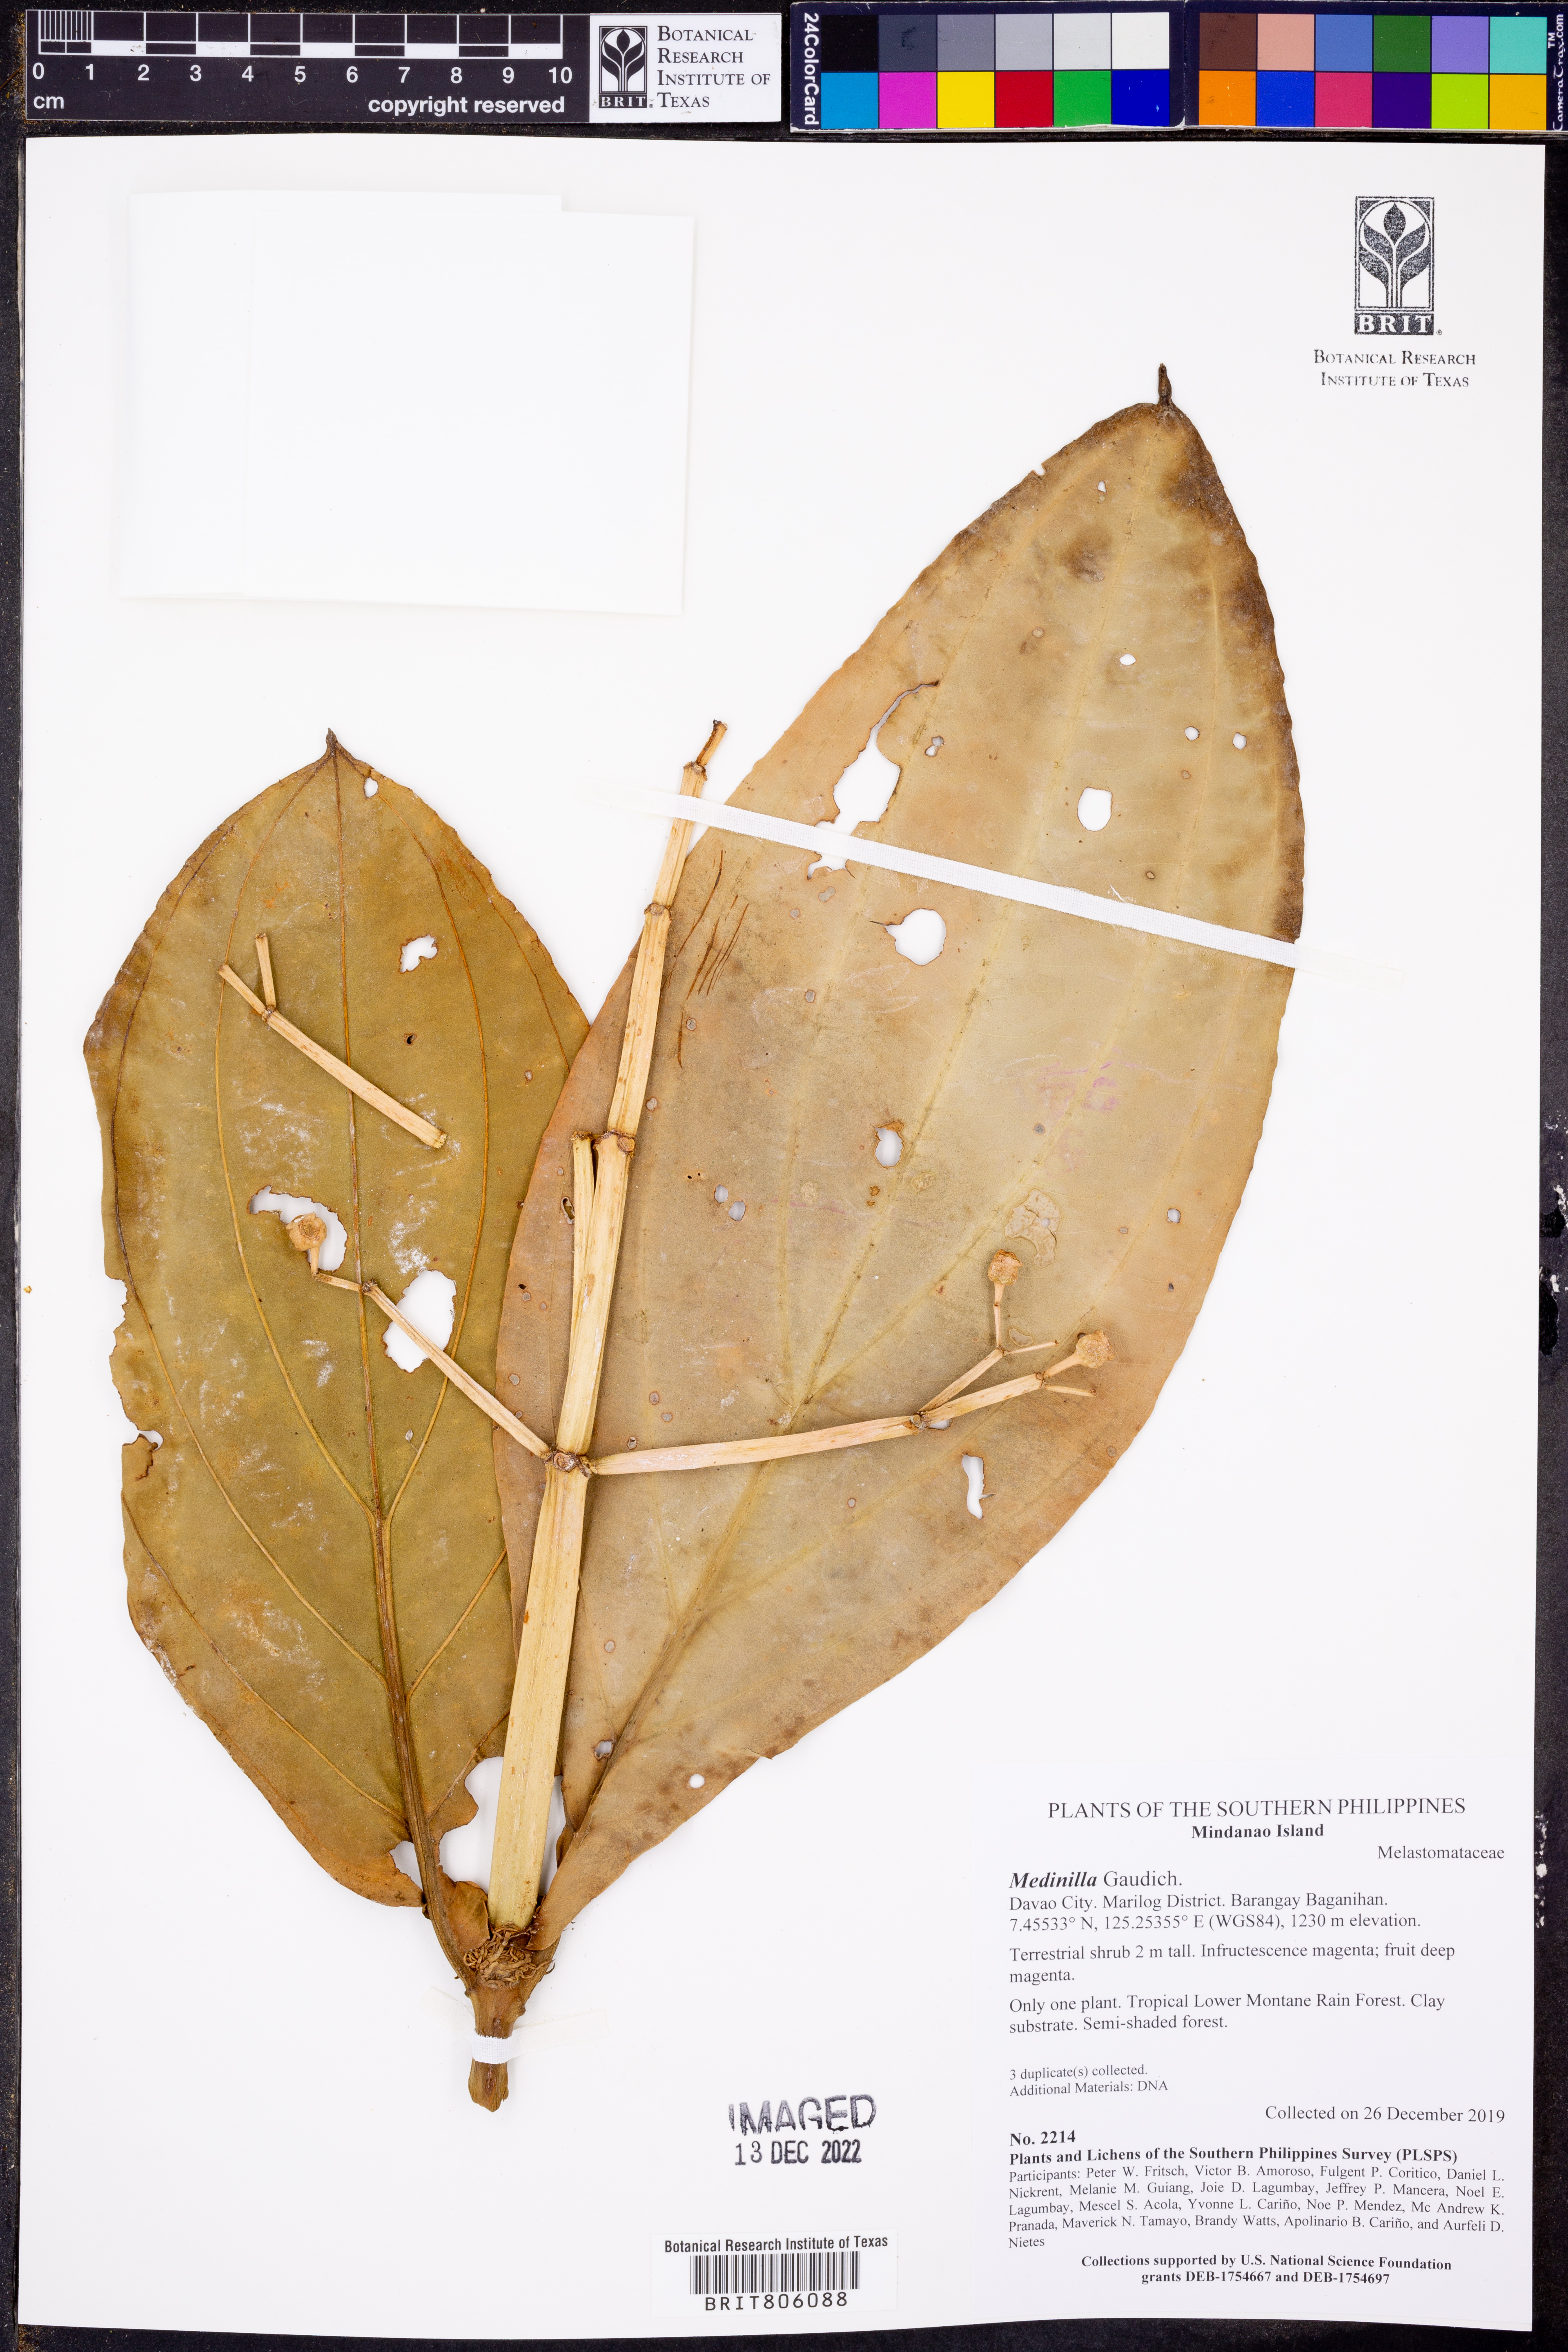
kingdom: Plantae
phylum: Tracheophyta
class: Magnoliopsida
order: Myrtales
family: Melastomataceae
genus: Medinilla
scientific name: Medinilla
